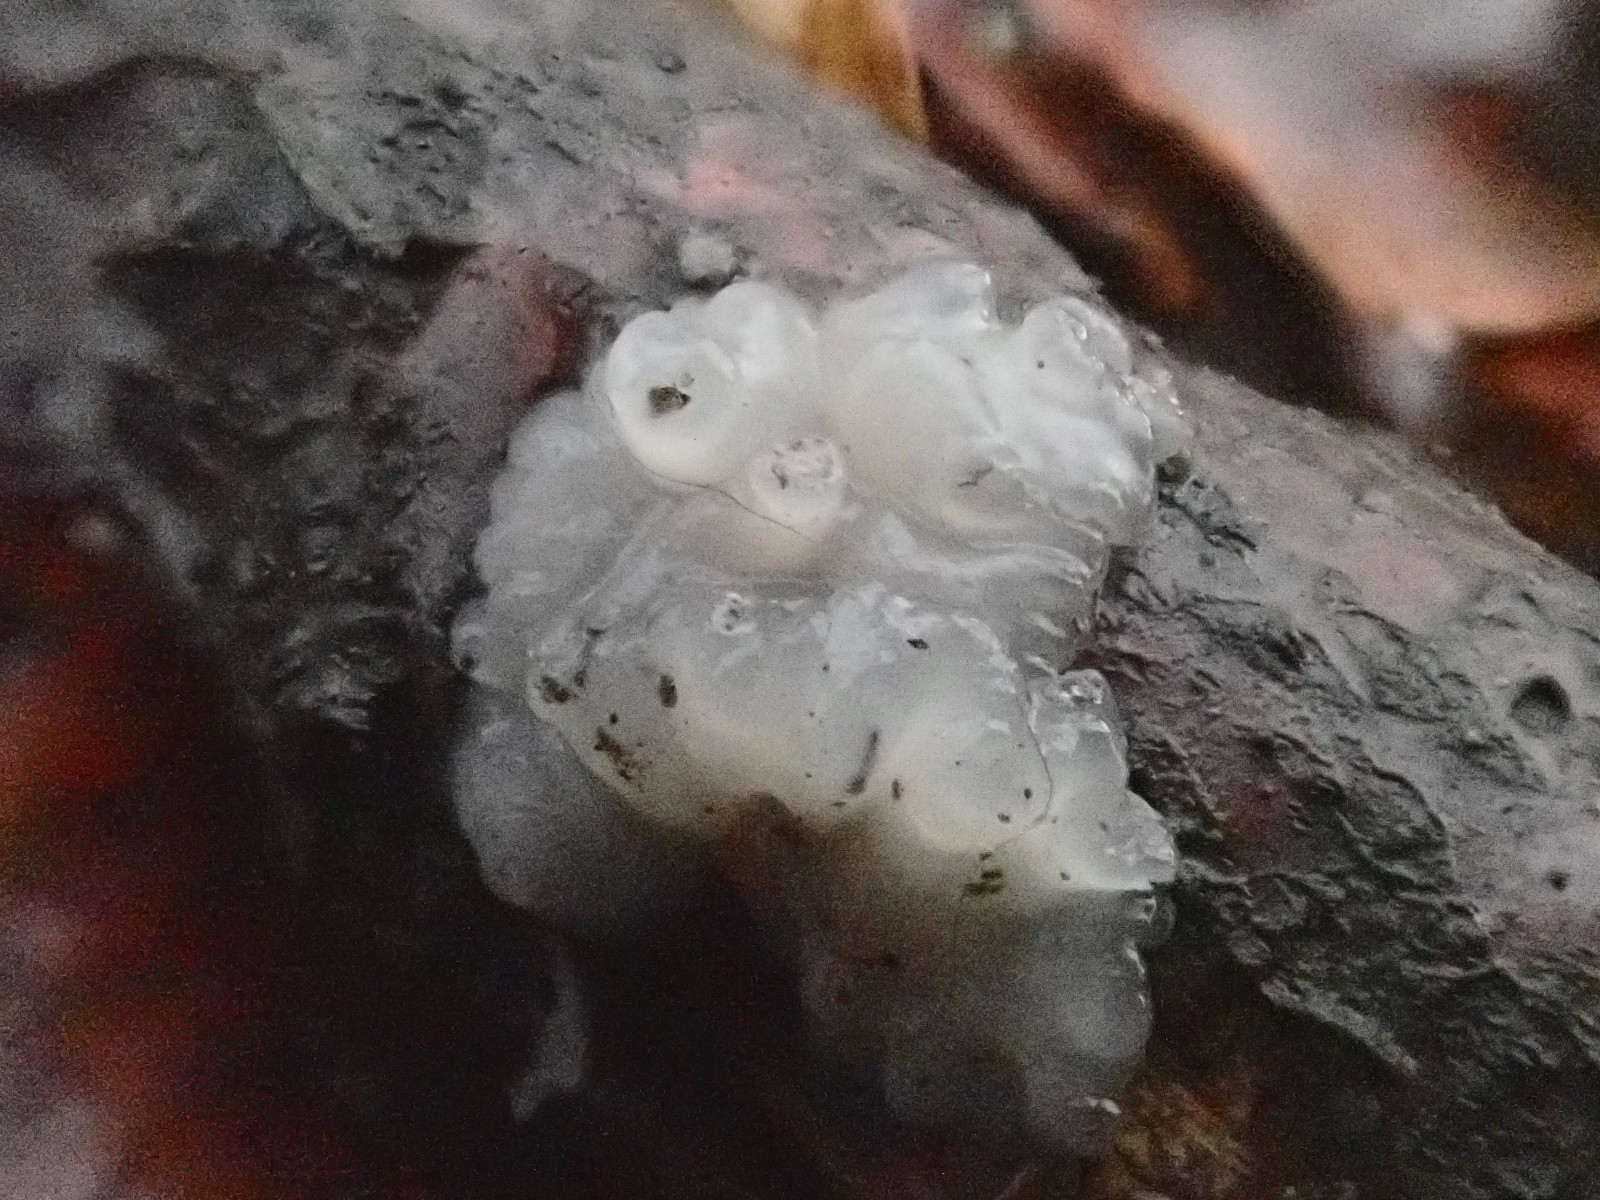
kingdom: Fungi
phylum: Basidiomycota
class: Agaricomycetes
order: Auriculariales
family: Auriculariaceae
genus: Exidia
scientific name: Exidia thuretiana
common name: hvidlig bævretop
